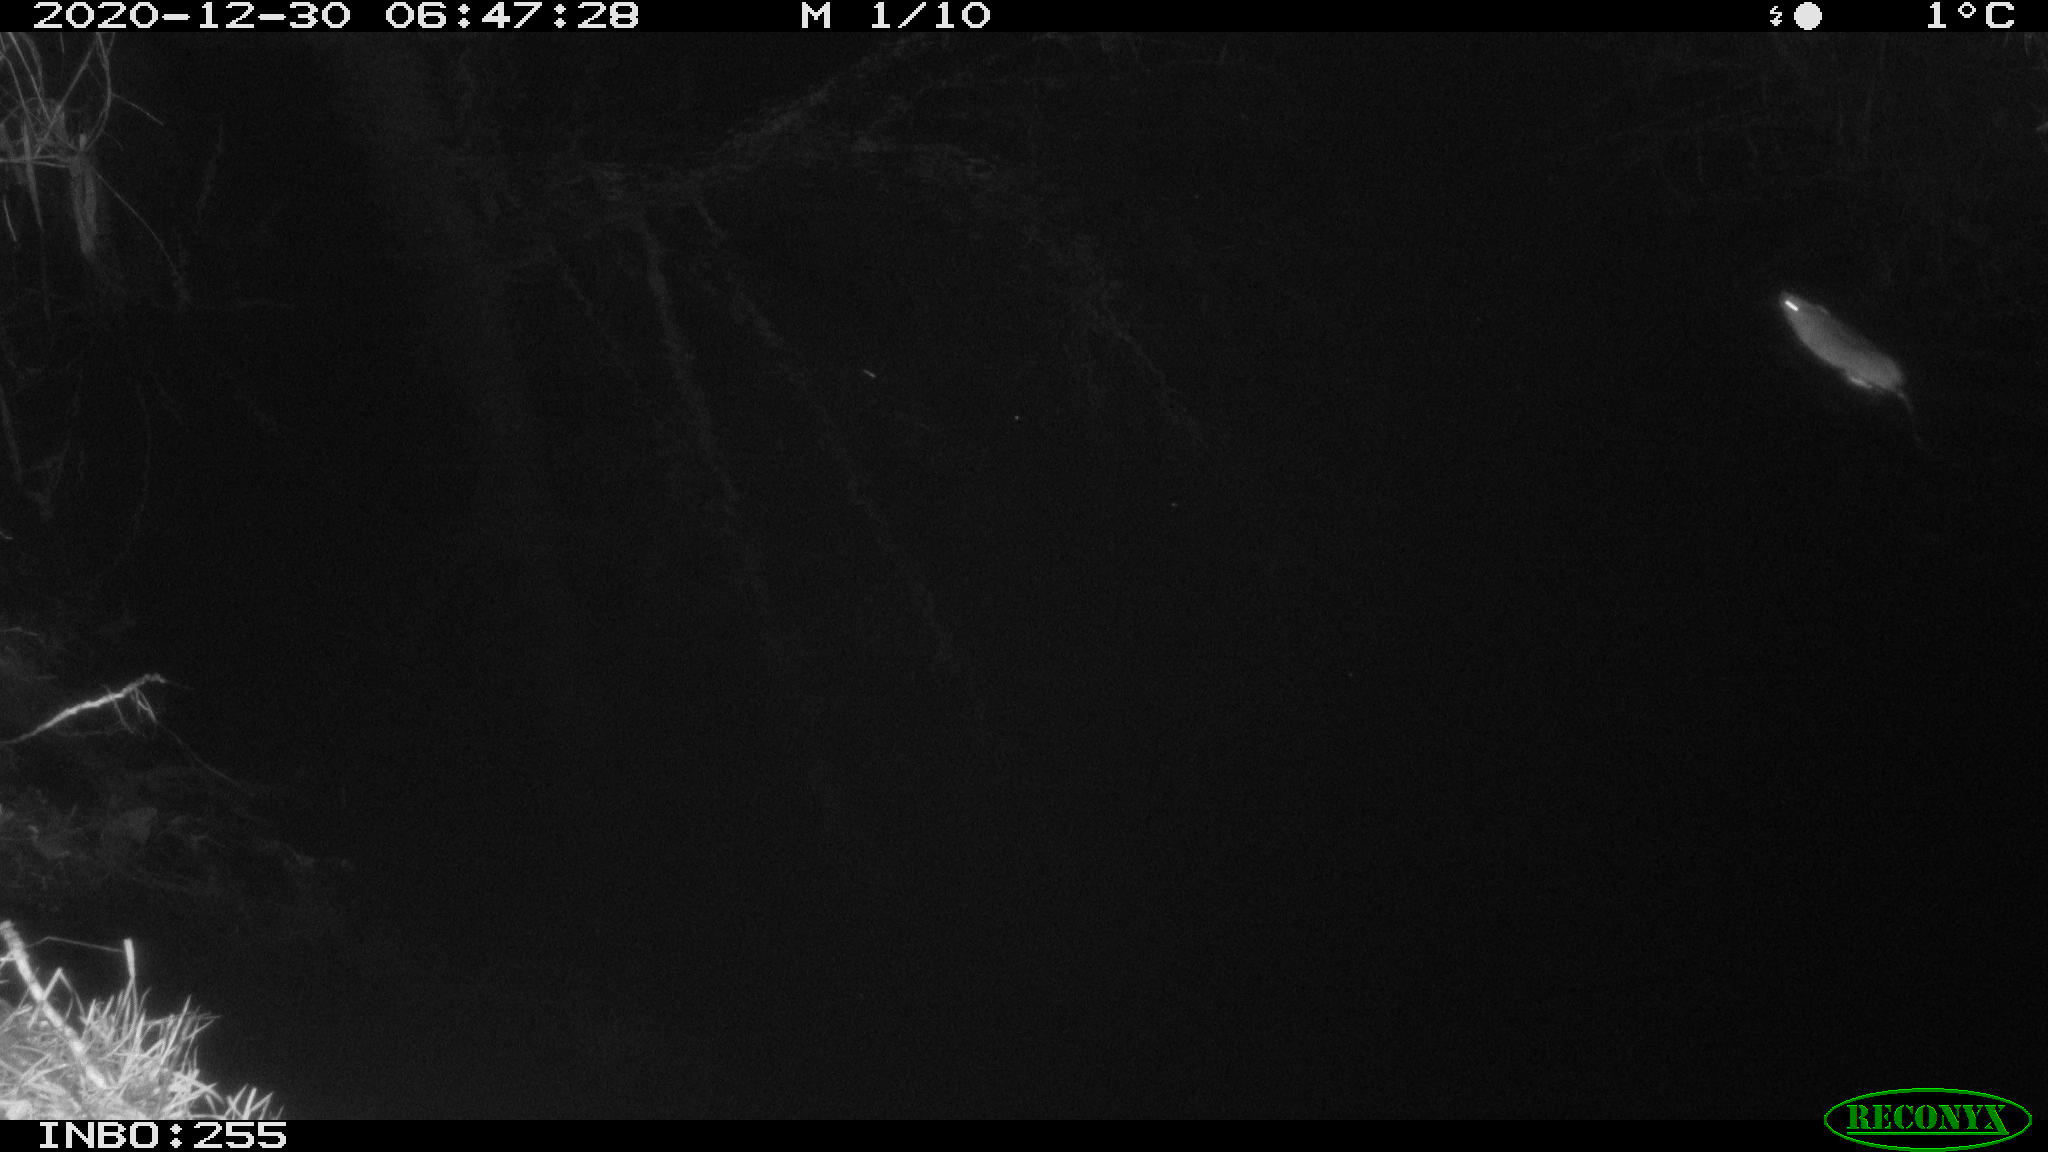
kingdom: Animalia
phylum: Chordata
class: Mammalia
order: Rodentia
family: Muridae
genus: Rattus
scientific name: Rattus norvegicus
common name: Brown rat
